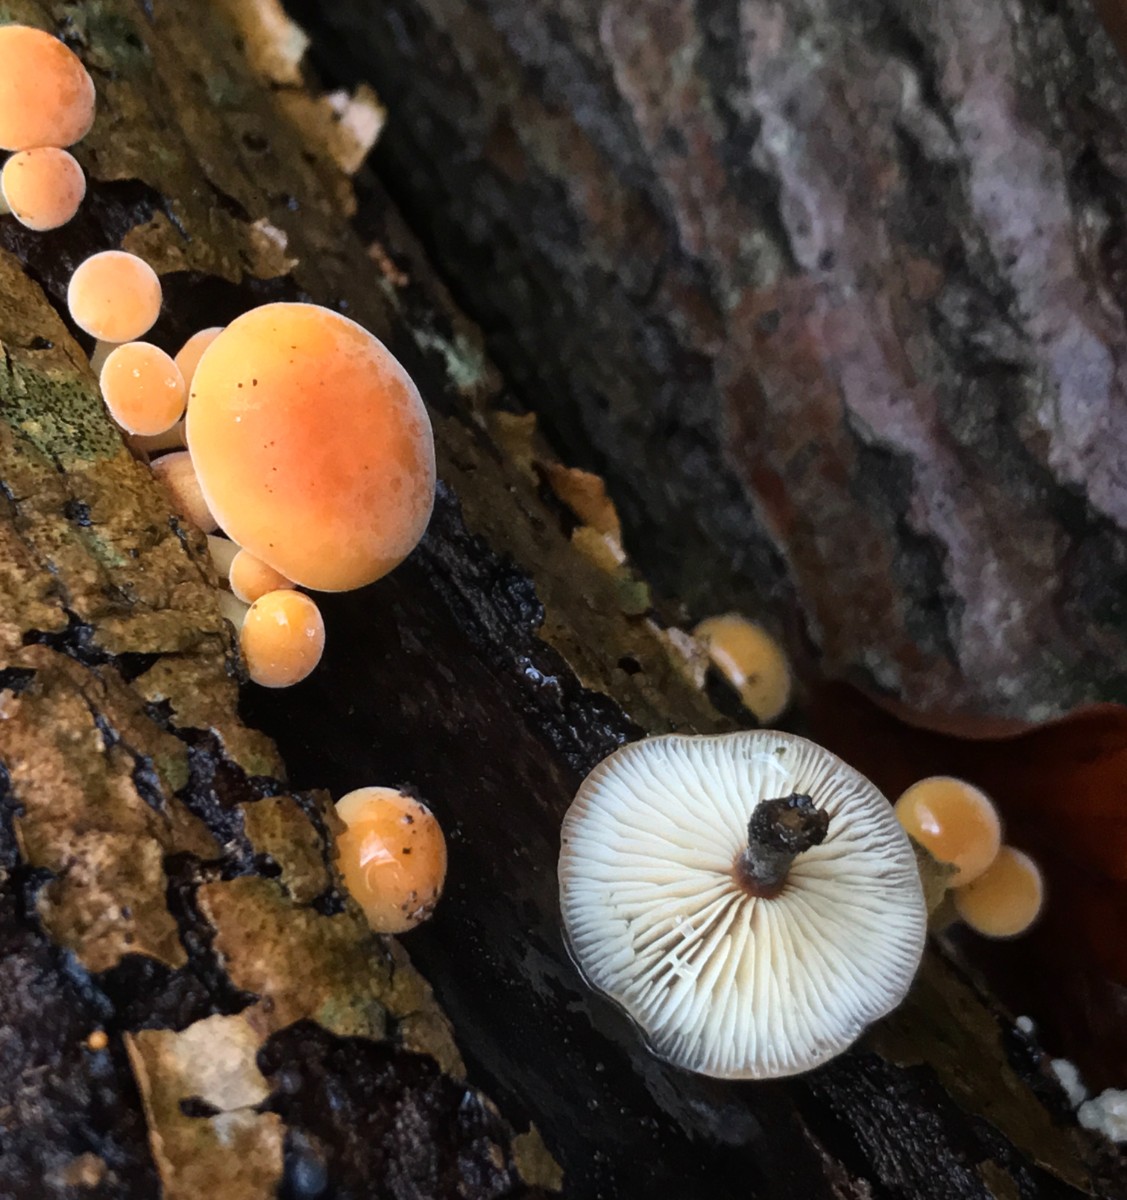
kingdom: Fungi
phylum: Basidiomycota
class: Agaricomycetes
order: Agaricales
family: Physalacriaceae
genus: Flammulina
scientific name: Flammulina
